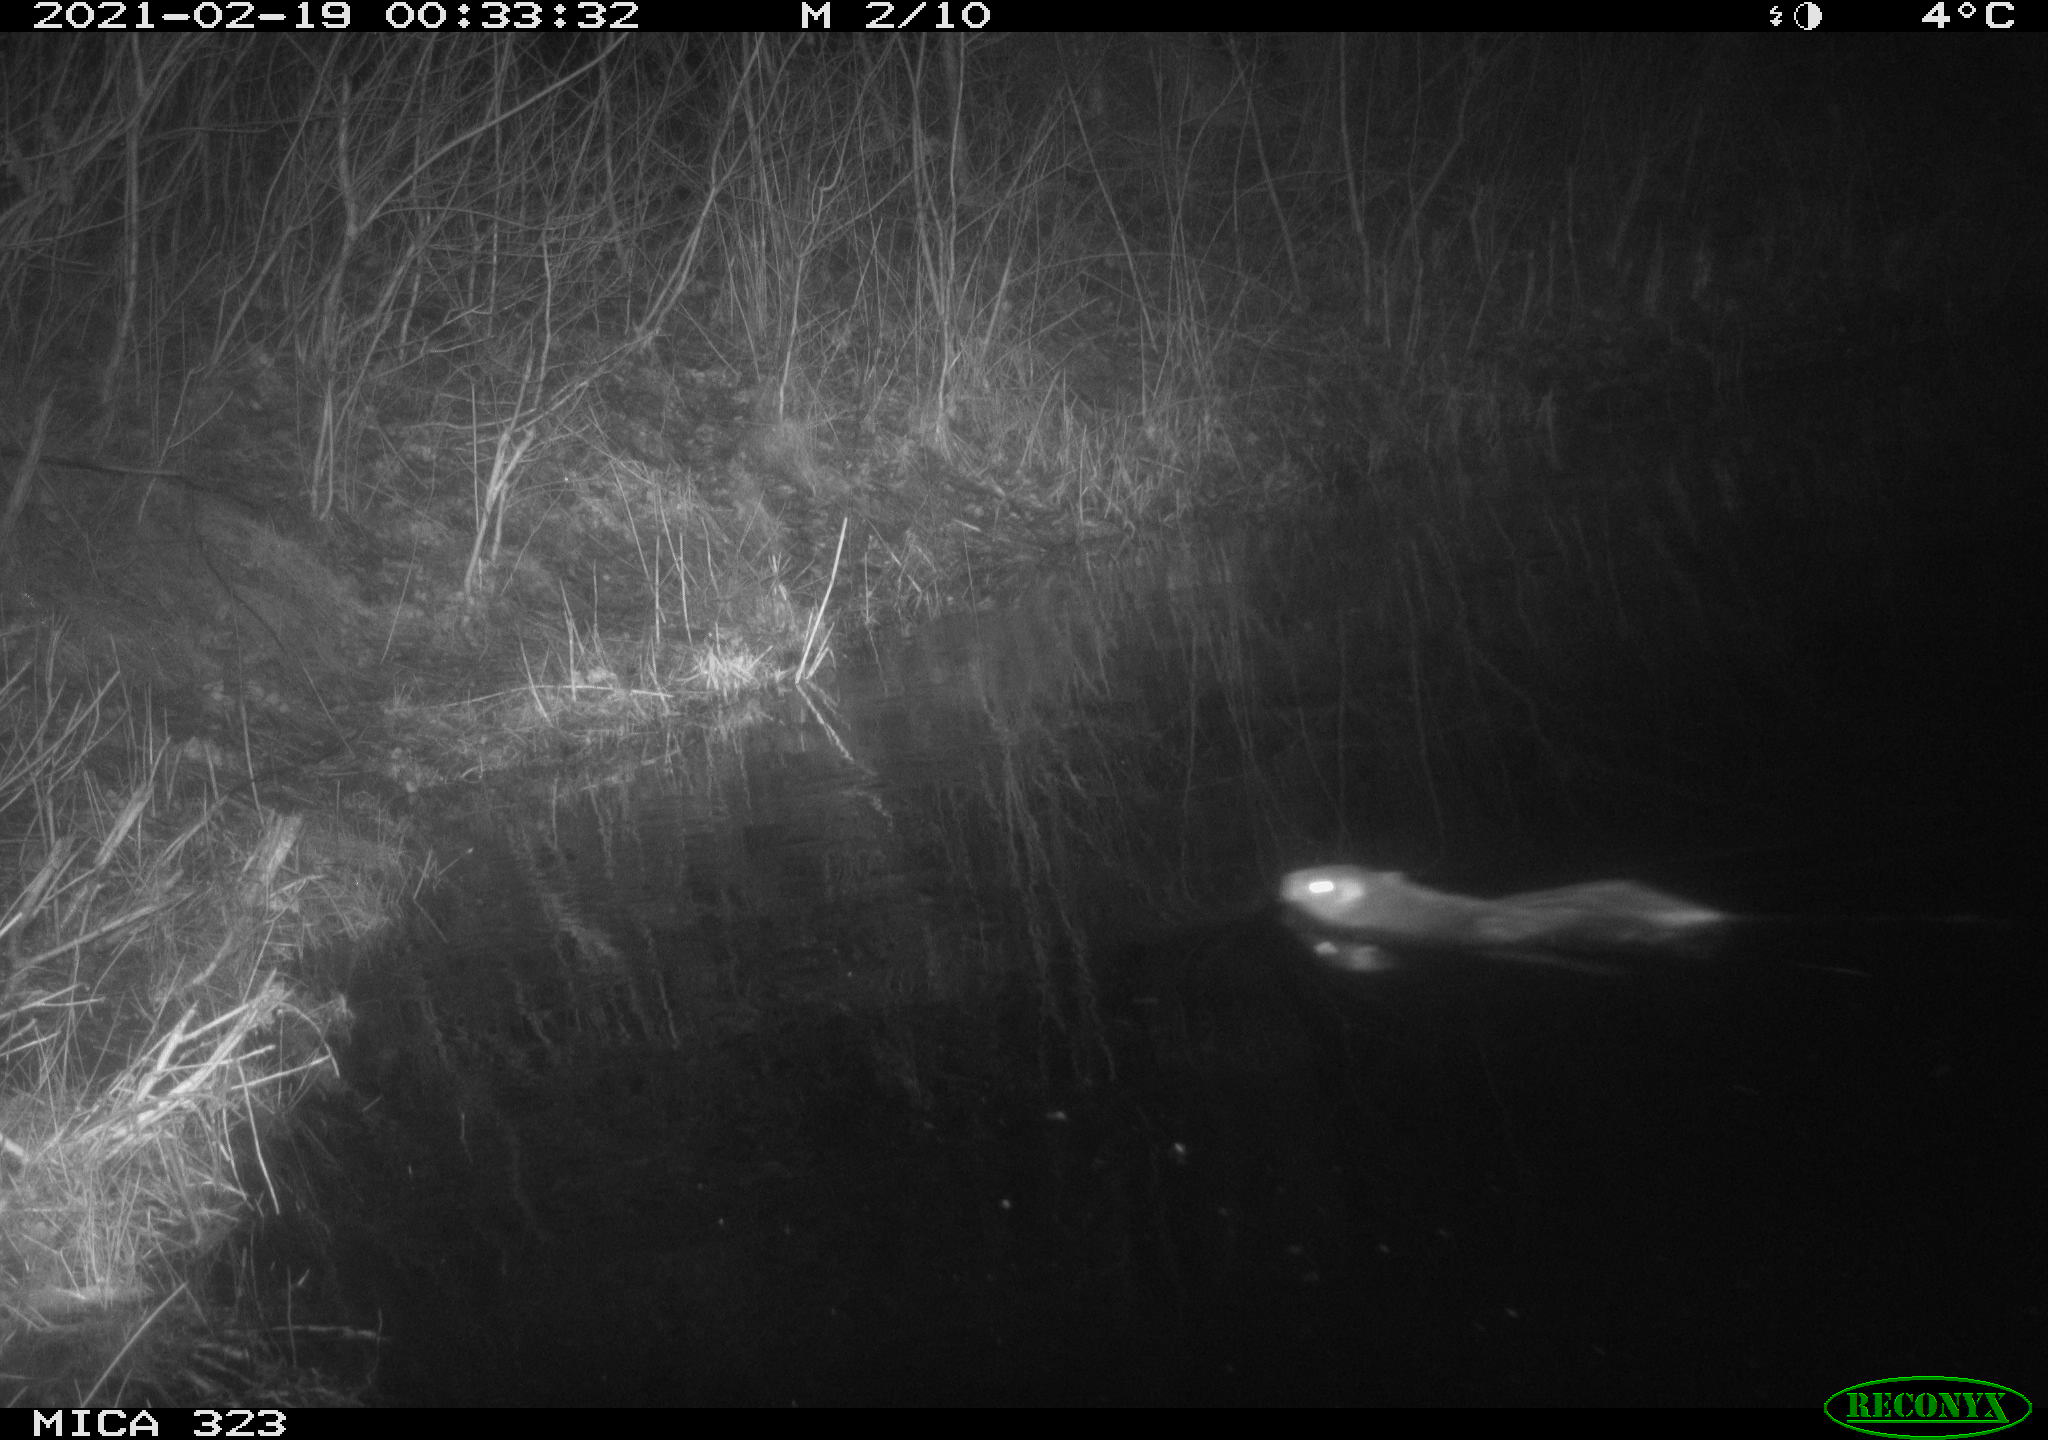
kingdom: Animalia
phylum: Chordata
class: Mammalia
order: Rodentia
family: Myocastoridae
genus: Myocastor
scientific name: Myocastor coypus
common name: Coypu
